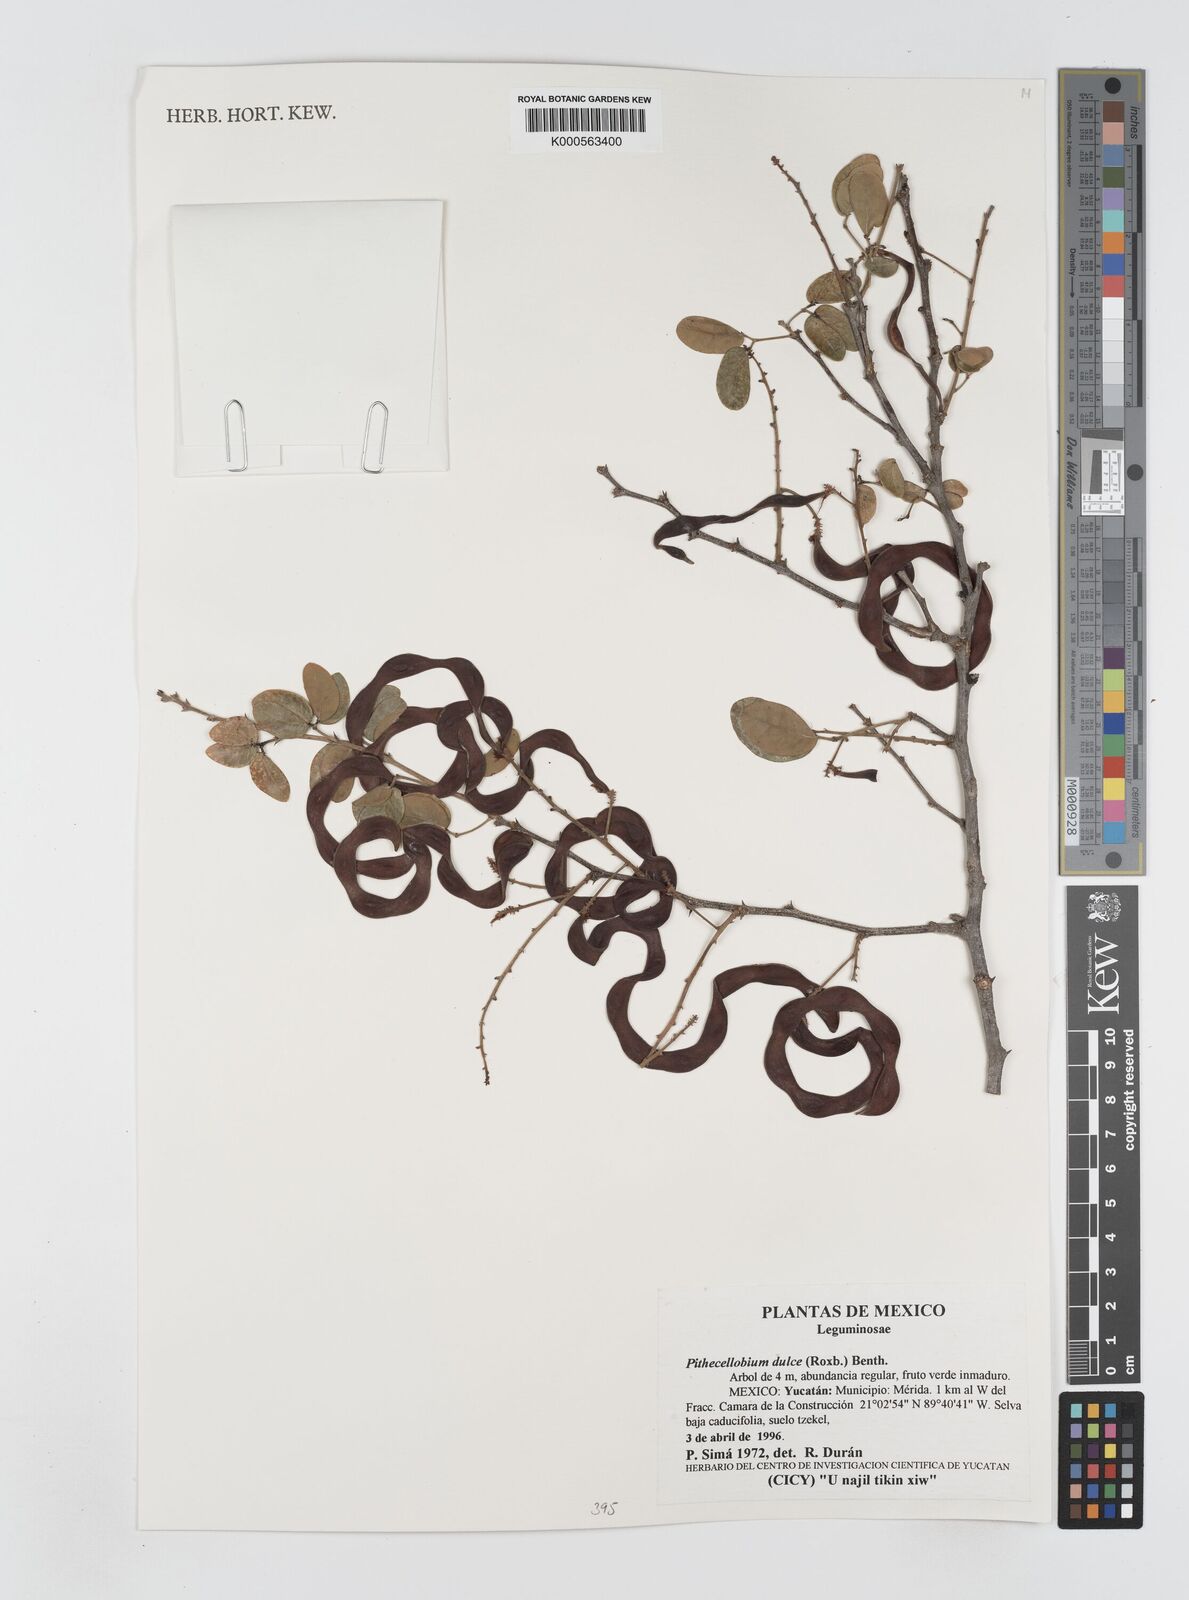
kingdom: Plantae
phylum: Tracheophyta
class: Magnoliopsida
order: Fabales
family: Fabaceae
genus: Pithecellobium
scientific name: Pithecellobium dulce
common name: Monkeypod
